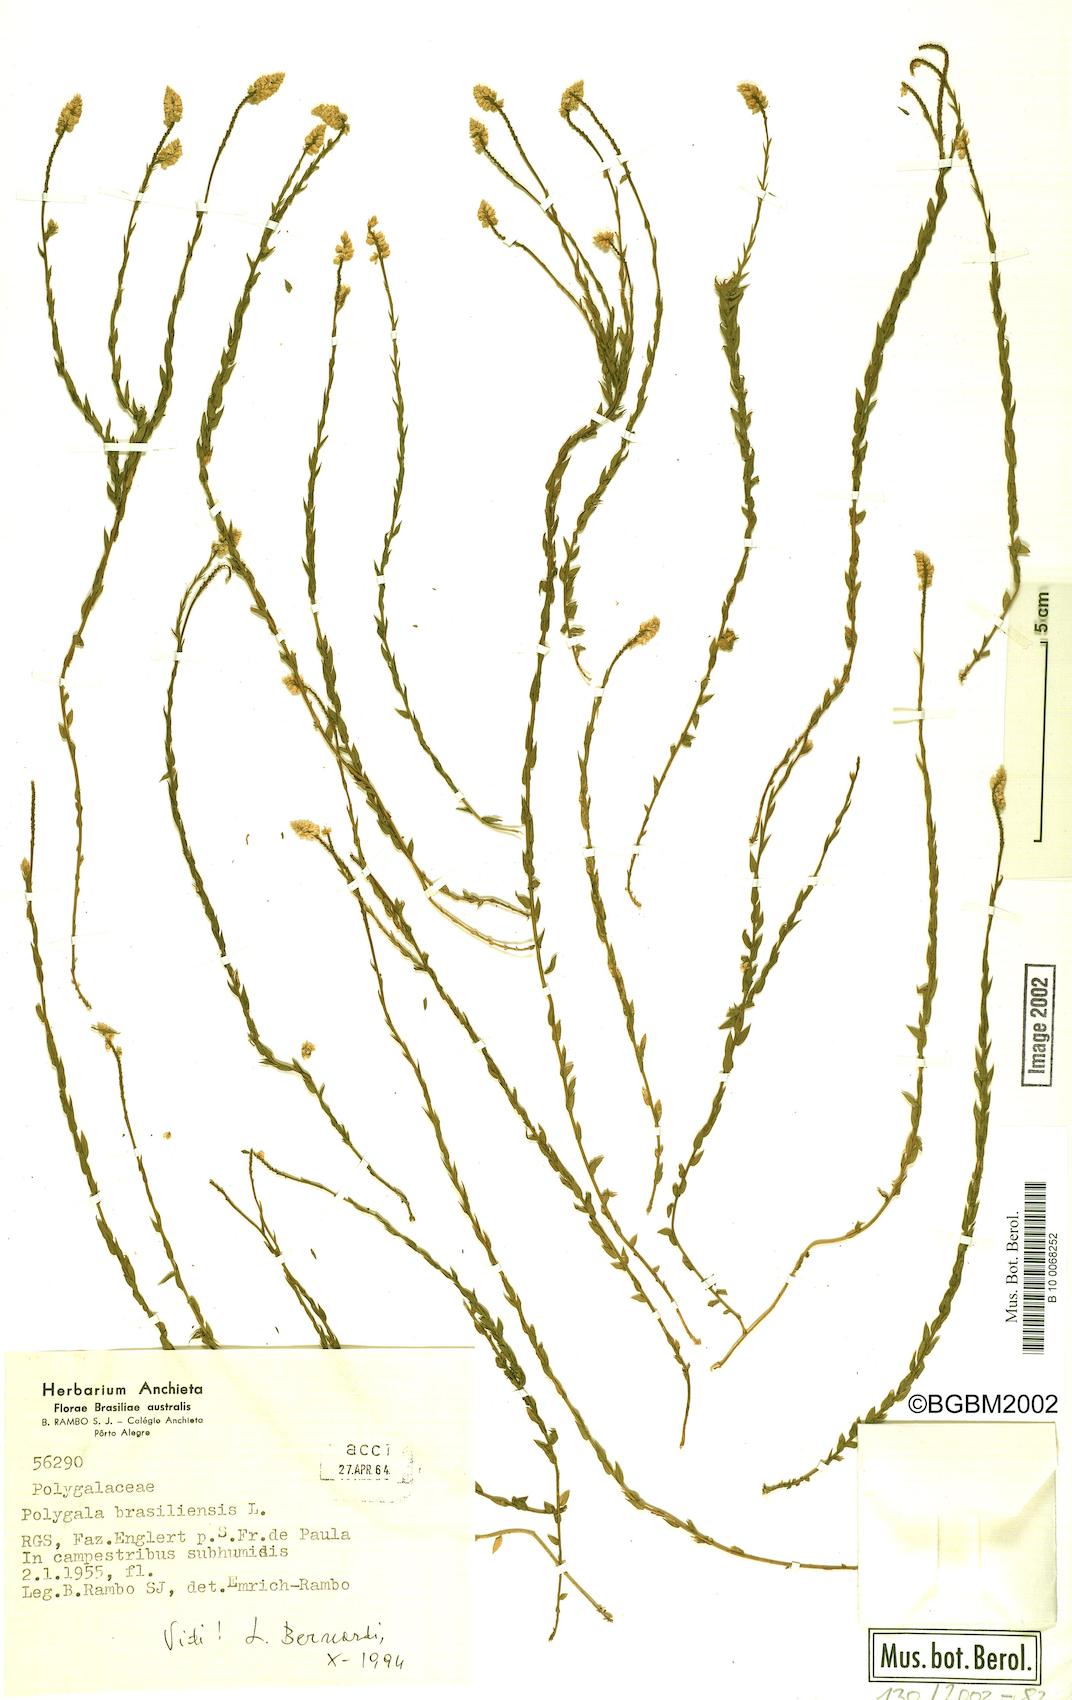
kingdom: Plantae
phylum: Tracheophyta
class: Magnoliopsida
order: Fabales
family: Polygalaceae
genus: Polygala
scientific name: Polygala brasiliensis
